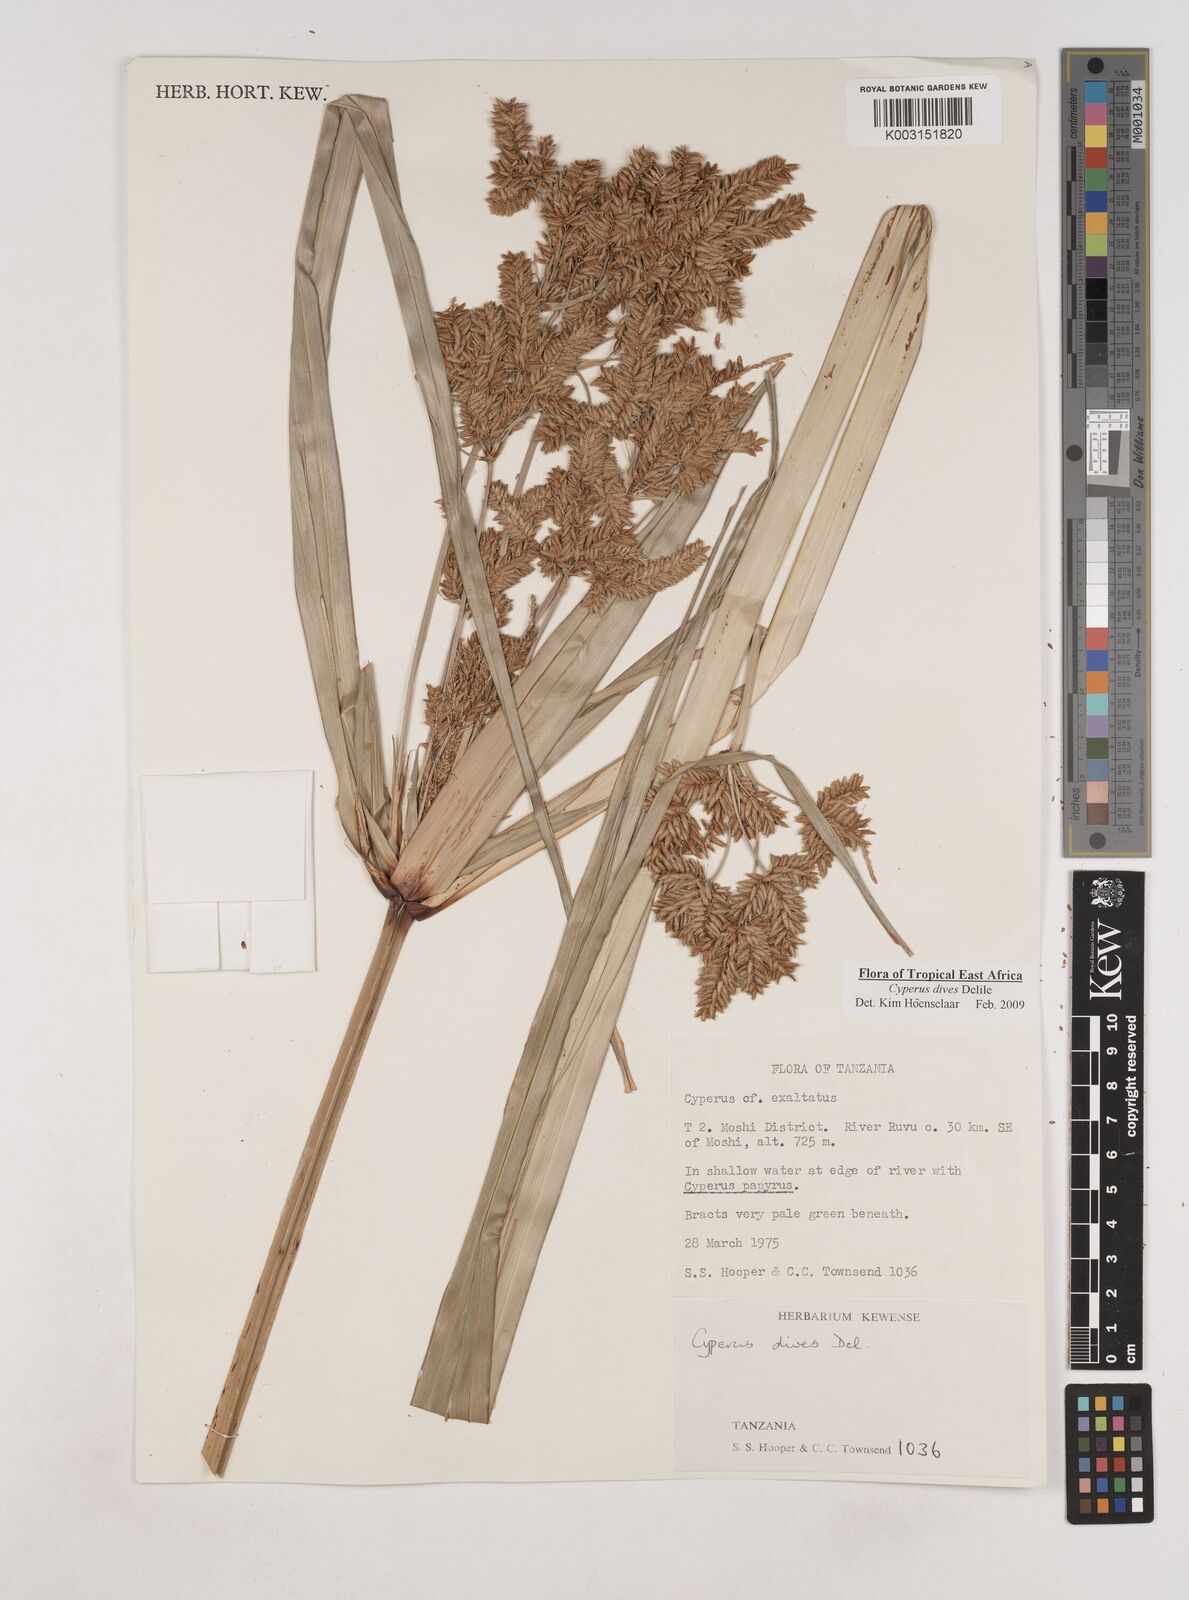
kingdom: Plantae
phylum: Tracheophyta
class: Liliopsida
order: Poales
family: Cyperaceae
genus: Cyperus
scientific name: Cyperus
